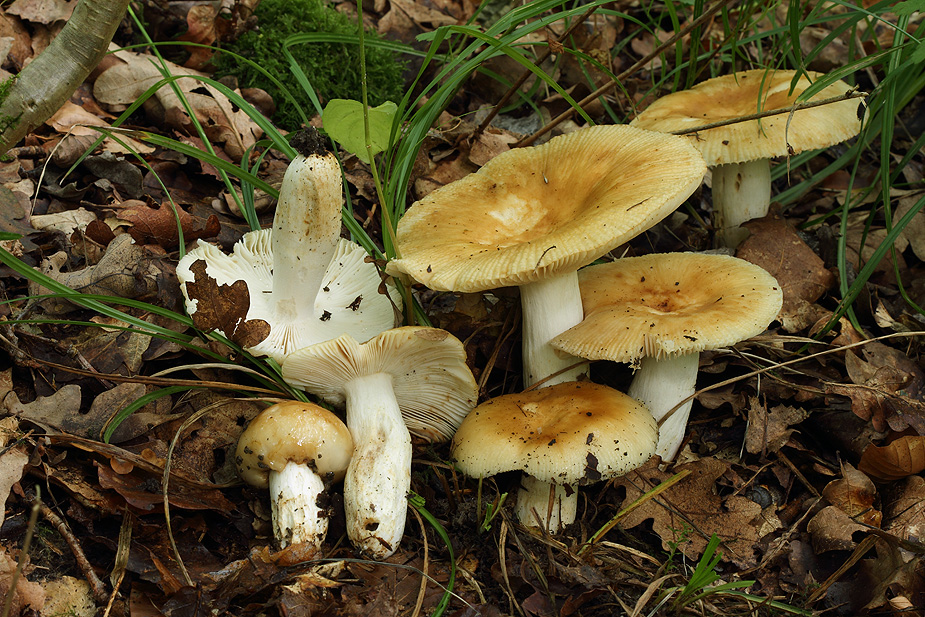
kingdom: Fungi
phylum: Basidiomycota
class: Agaricomycetes
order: Russulales
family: Russulaceae
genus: Russula
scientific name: Russula foetens
